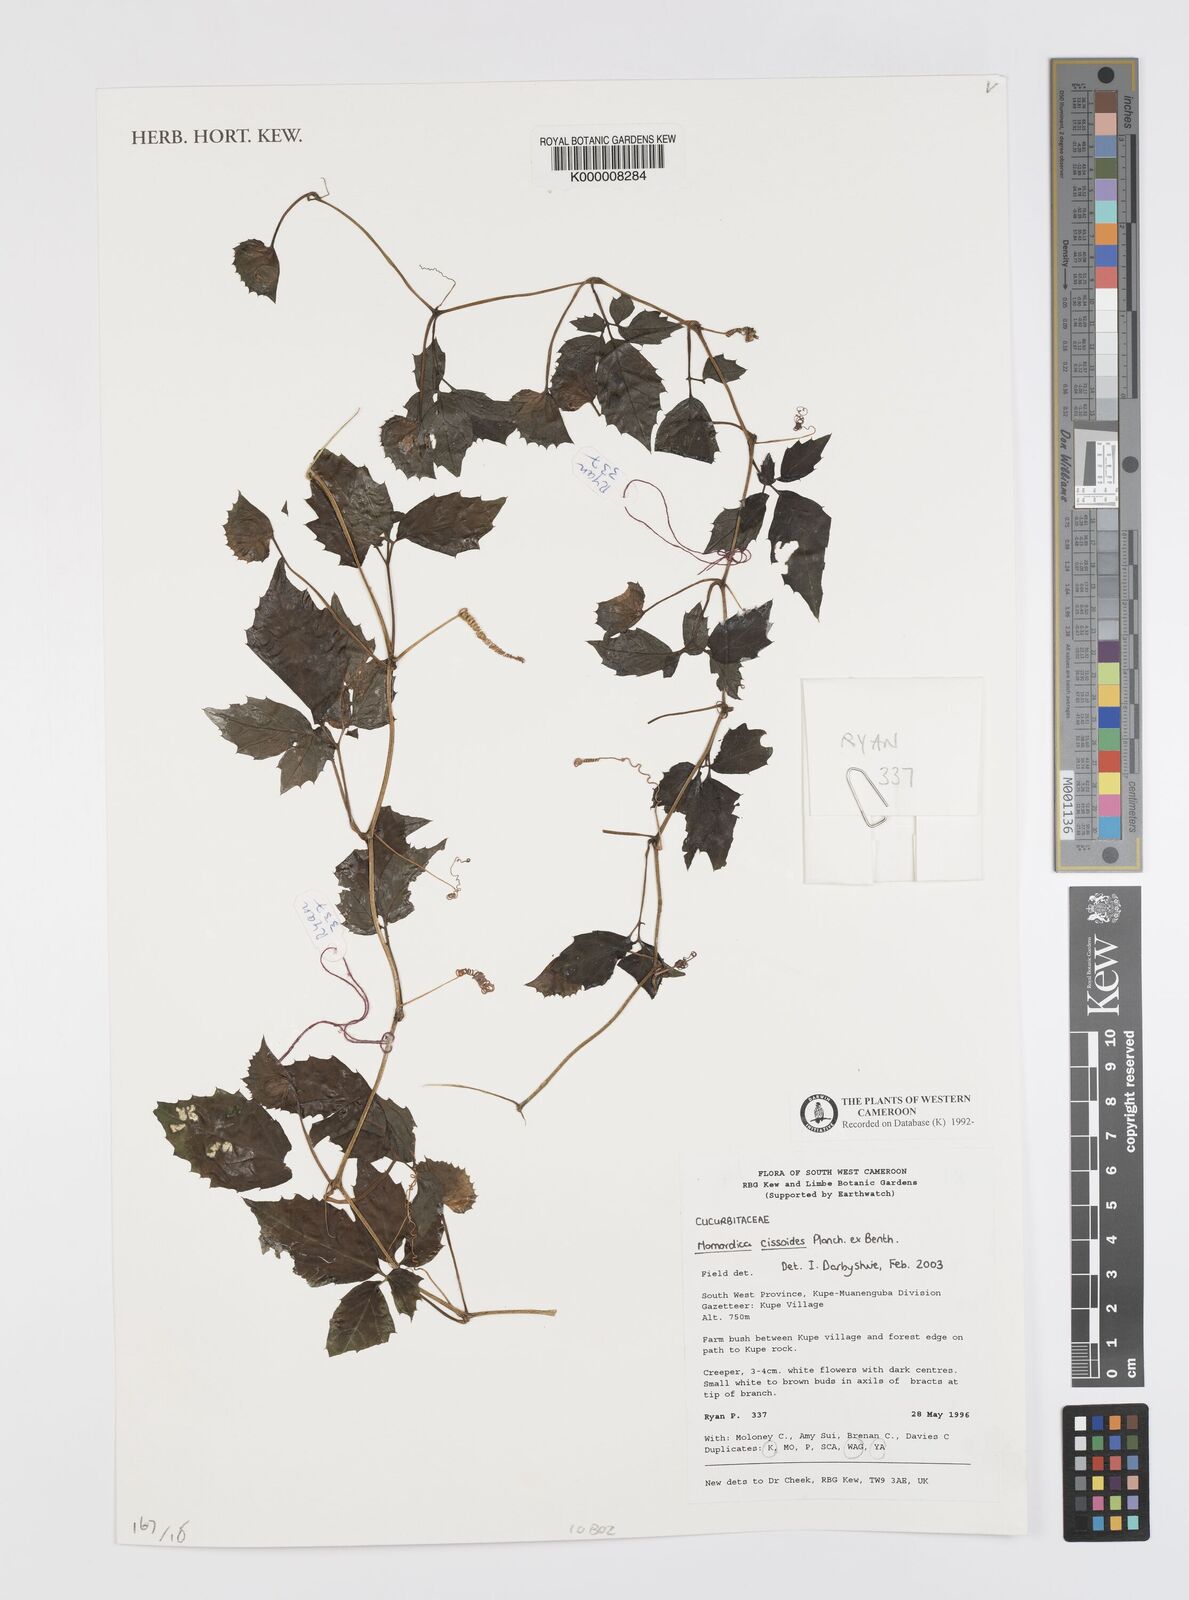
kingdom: Plantae
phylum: Tracheophyta
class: Magnoliopsida
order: Cucurbitales
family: Cucurbitaceae
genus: Momordica
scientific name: Momordica cissoides
